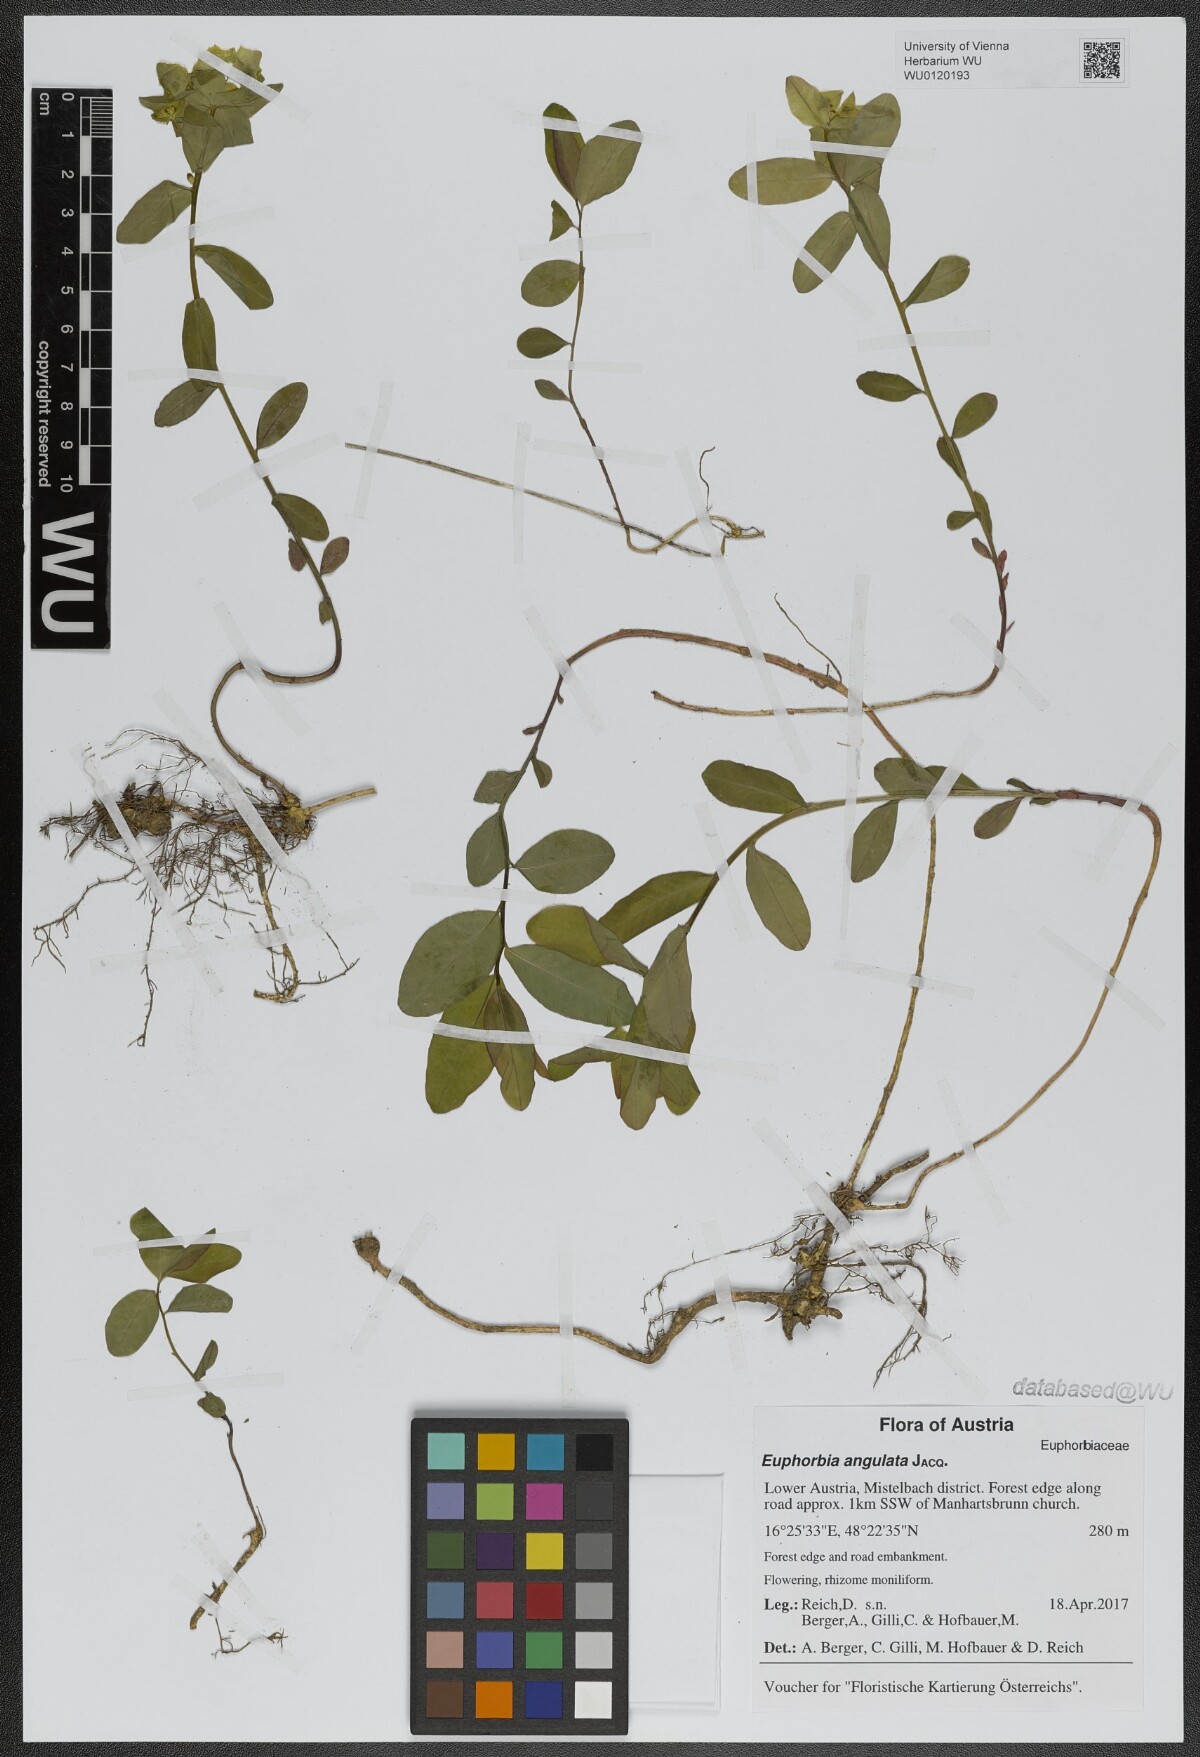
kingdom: Plantae
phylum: Tracheophyta
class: Magnoliopsida
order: Malpighiales
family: Euphorbiaceae
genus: Euphorbia
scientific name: Euphorbia angulata
